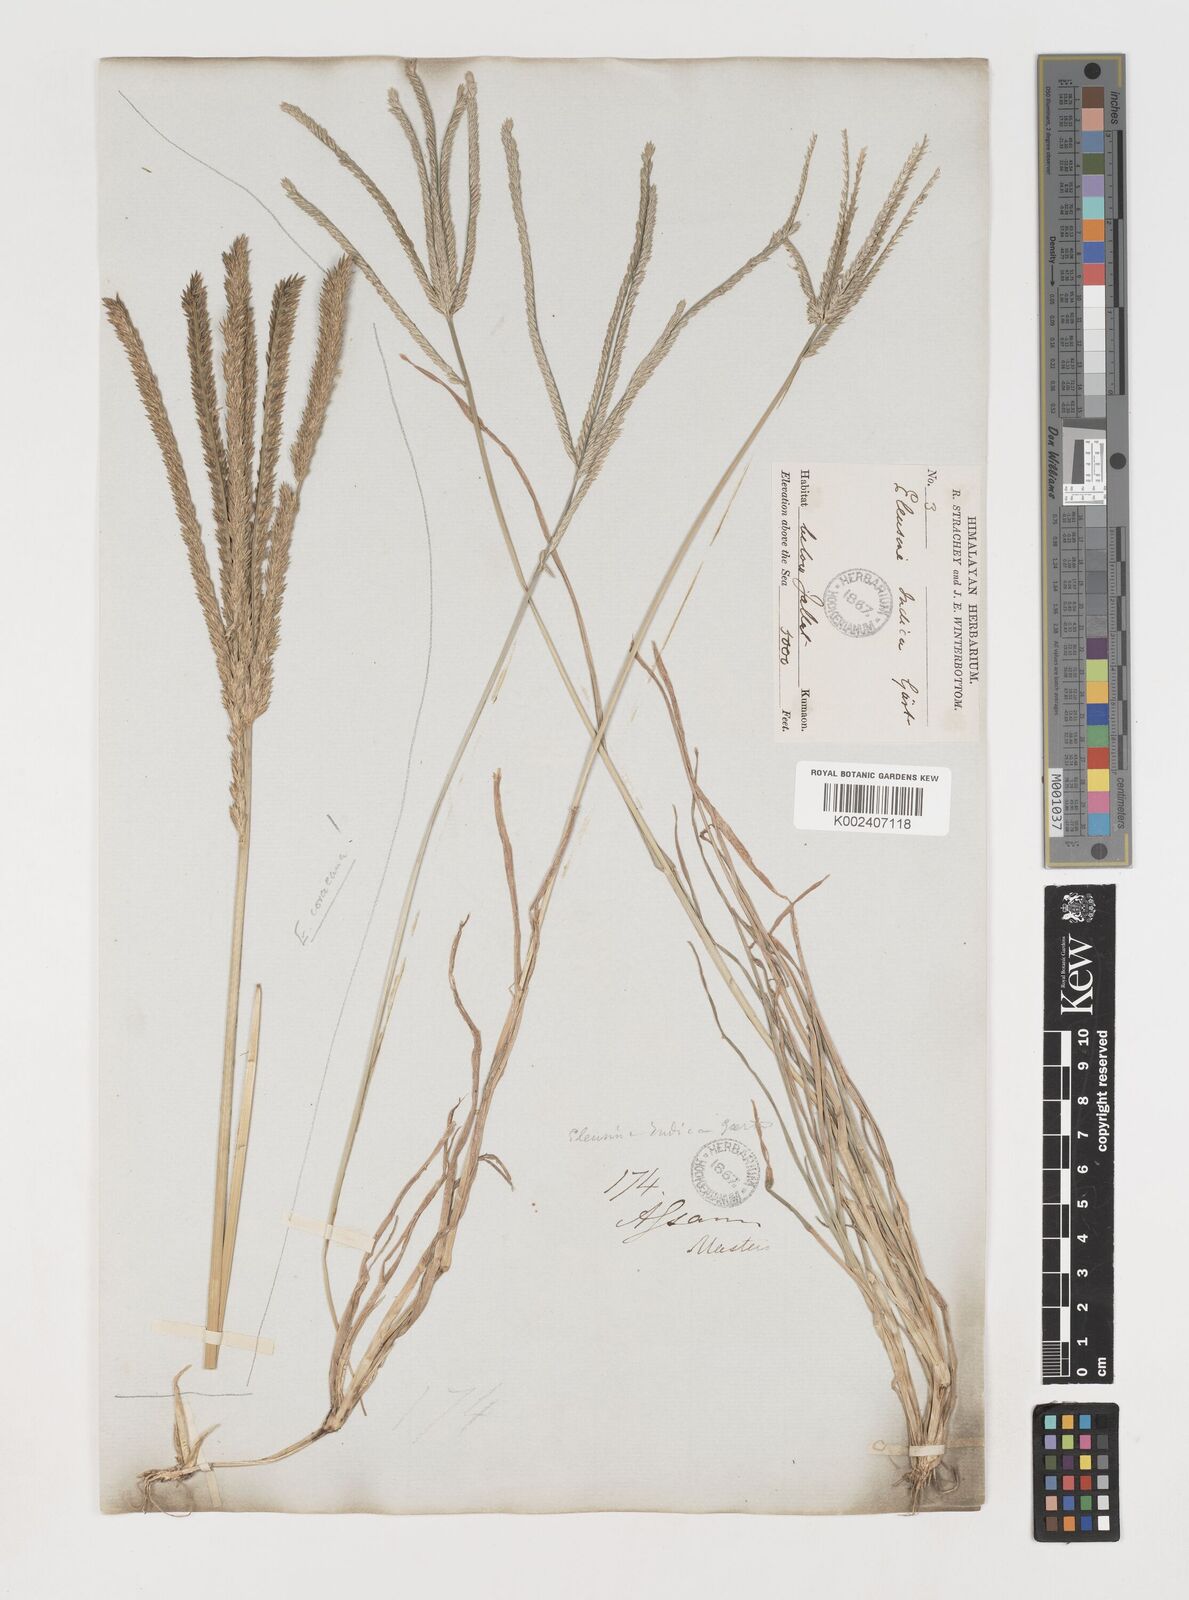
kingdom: Plantae
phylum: Tracheophyta
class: Liliopsida
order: Poales
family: Poaceae
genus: Eleusine
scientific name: Eleusine indica
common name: Yard-grass
